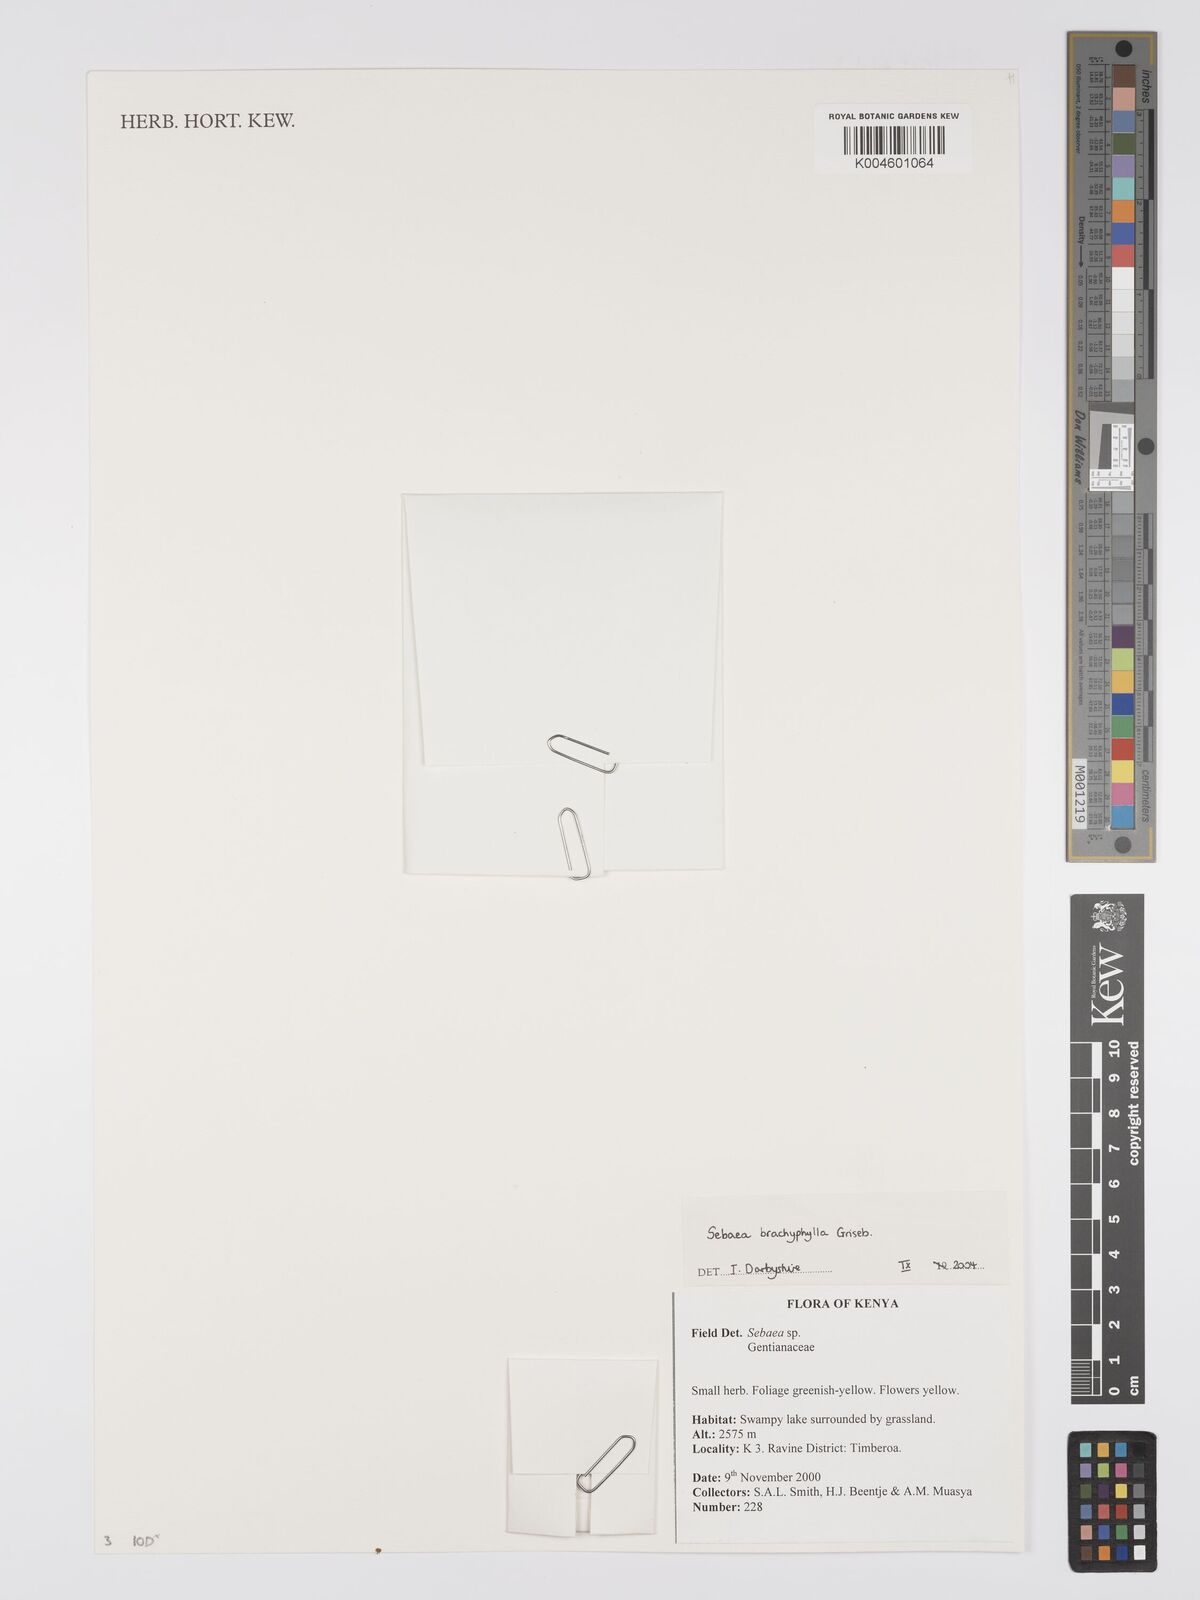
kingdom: Plantae
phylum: Tracheophyta
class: Magnoliopsida
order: Gentianales
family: Gentianaceae
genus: Sebaea
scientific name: Sebaea brachyphylla
